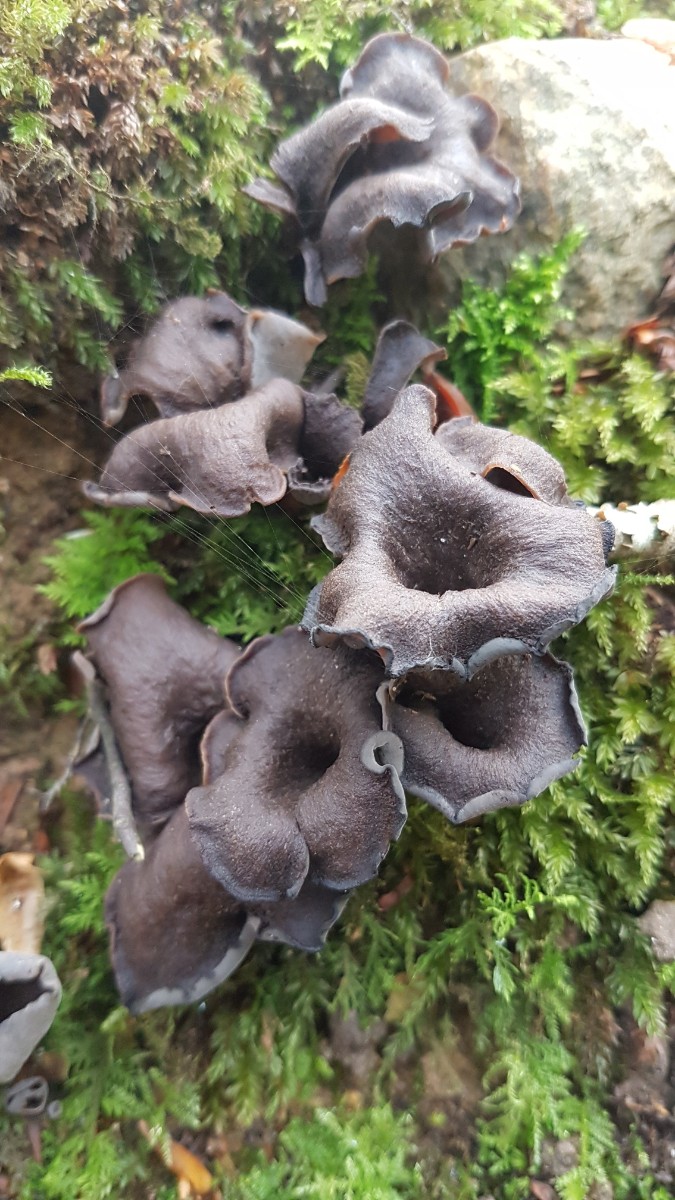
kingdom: Fungi
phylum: Basidiomycota
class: Agaricomycetes
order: Cantharellales
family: Hydnaceae
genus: Craterellus
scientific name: Craterellus cornucopioides
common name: trompetsvamp
